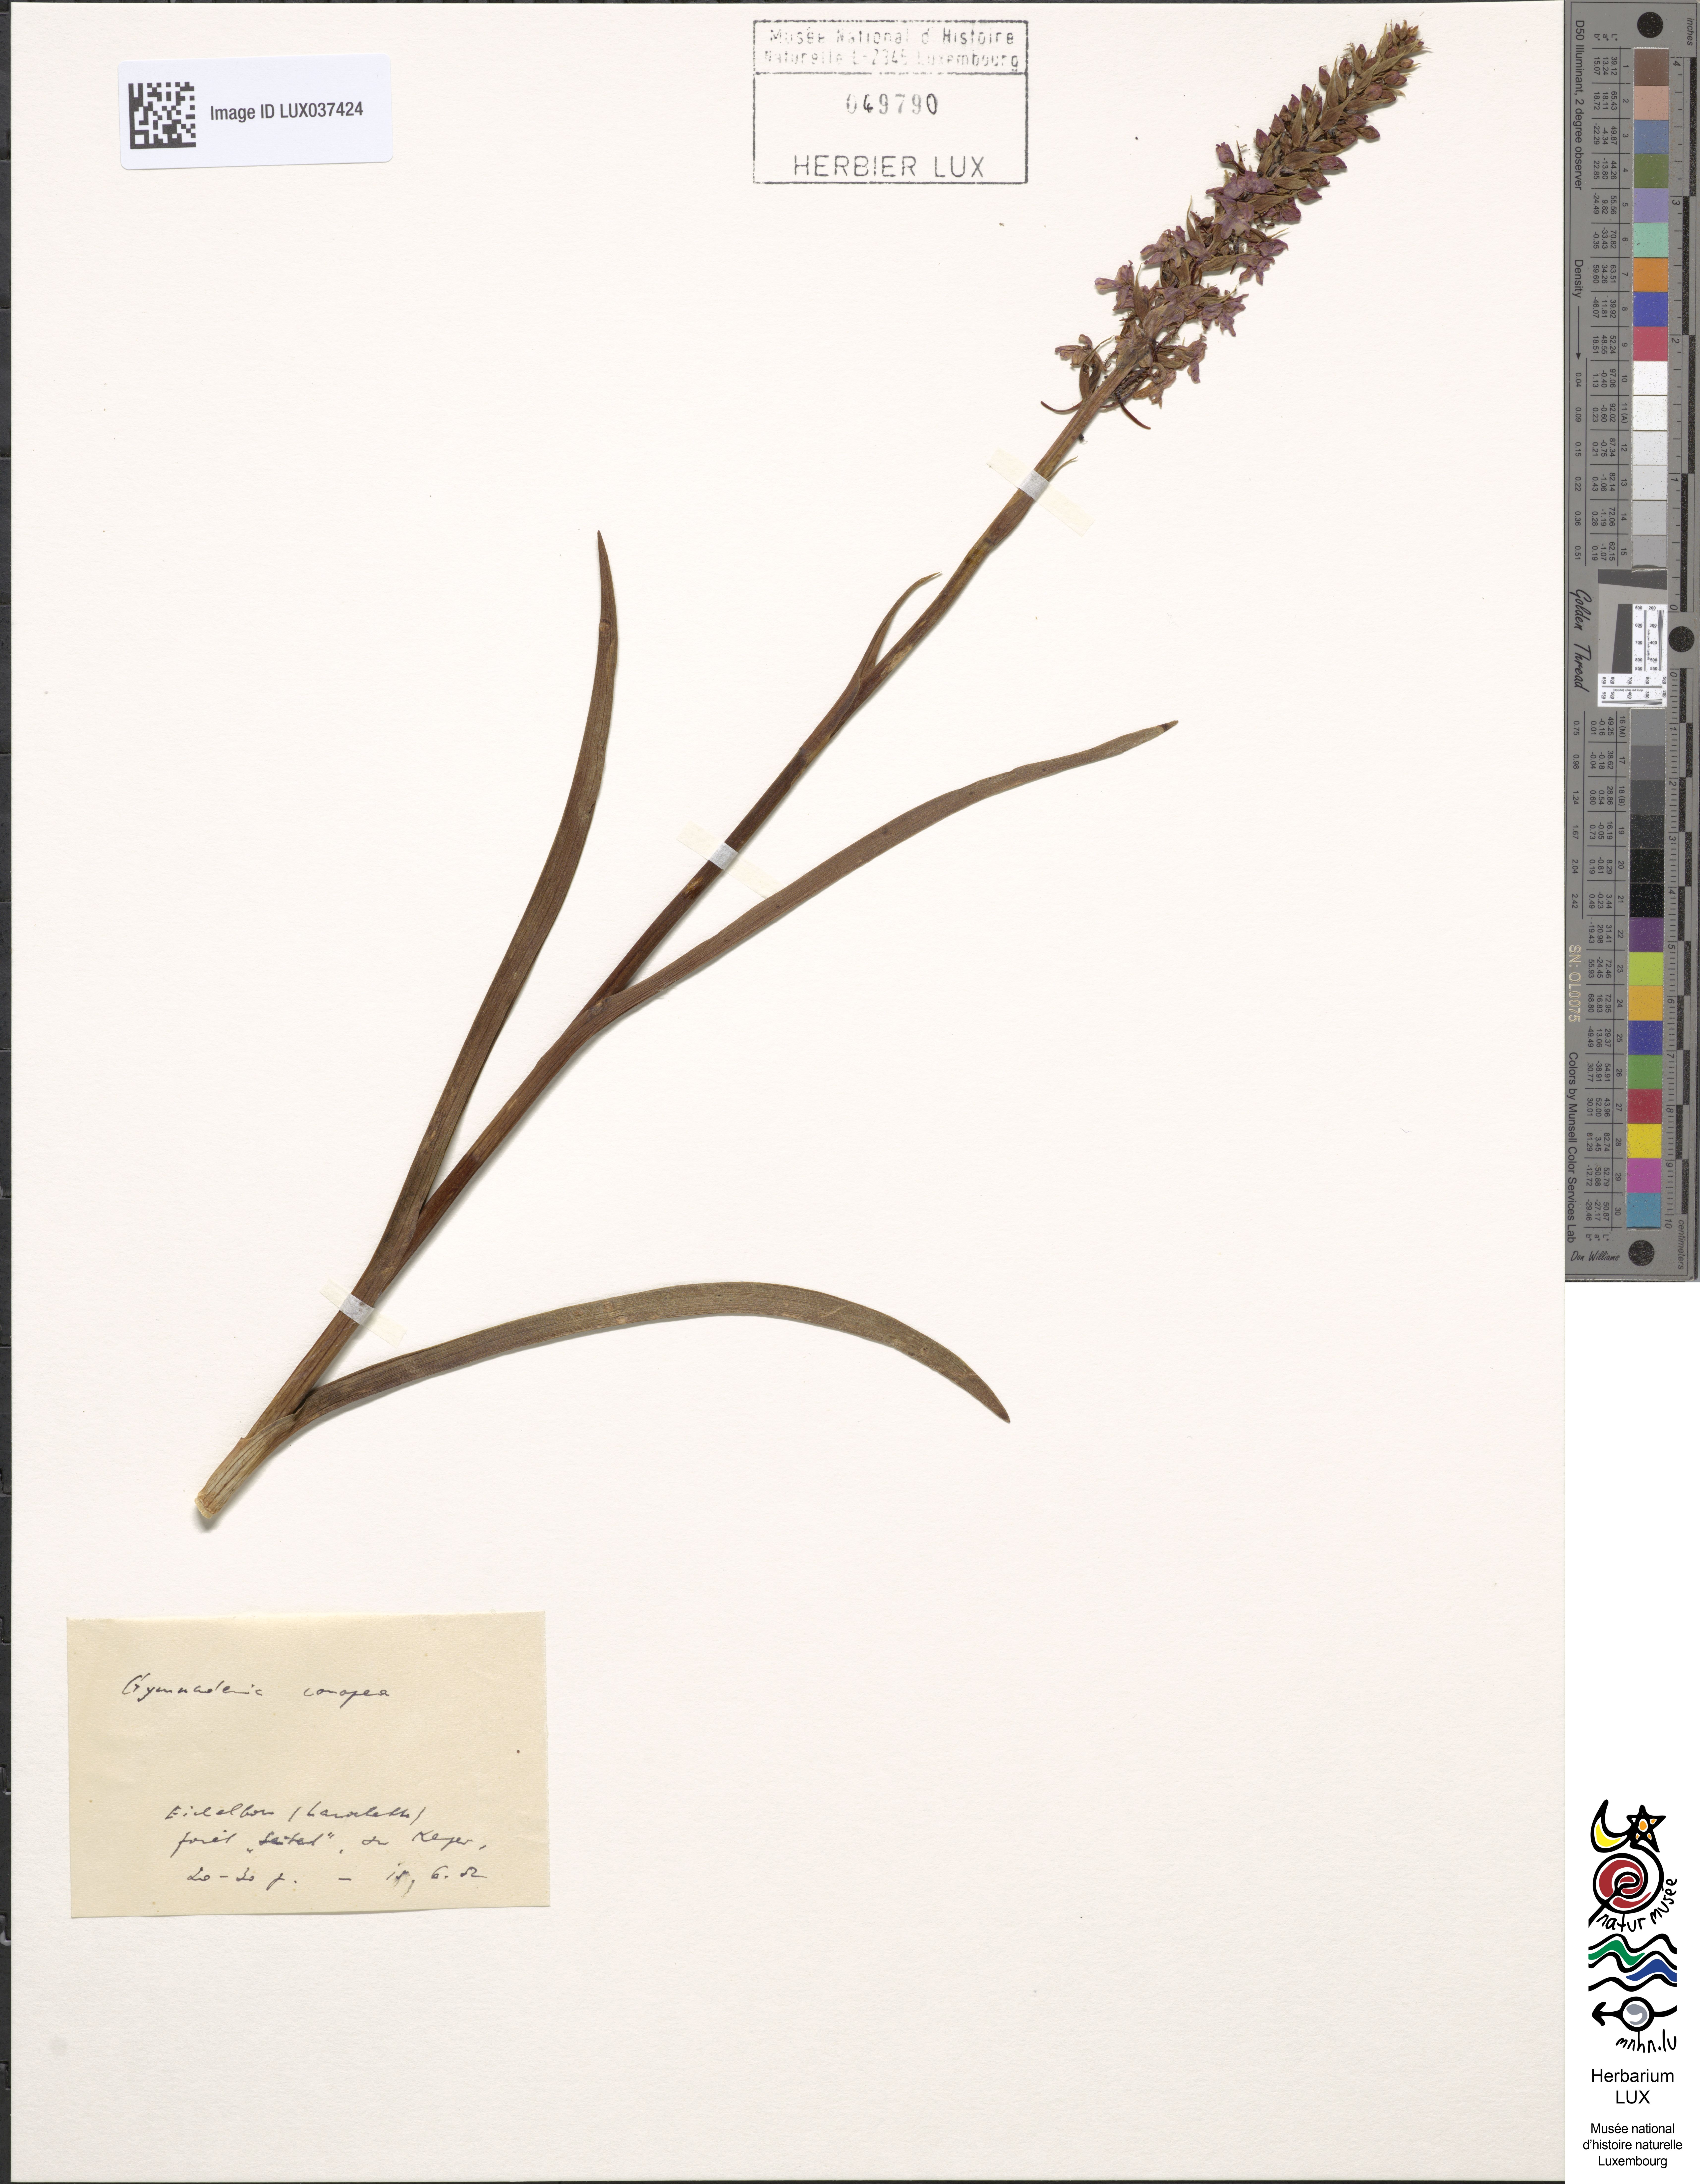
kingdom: Plantae
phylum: Tracheophyta
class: Liliopsida
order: Asparagales
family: Orchidaceae
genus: Gymnadenia
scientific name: Gymnadenia conopsea
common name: Fragrant orchid
